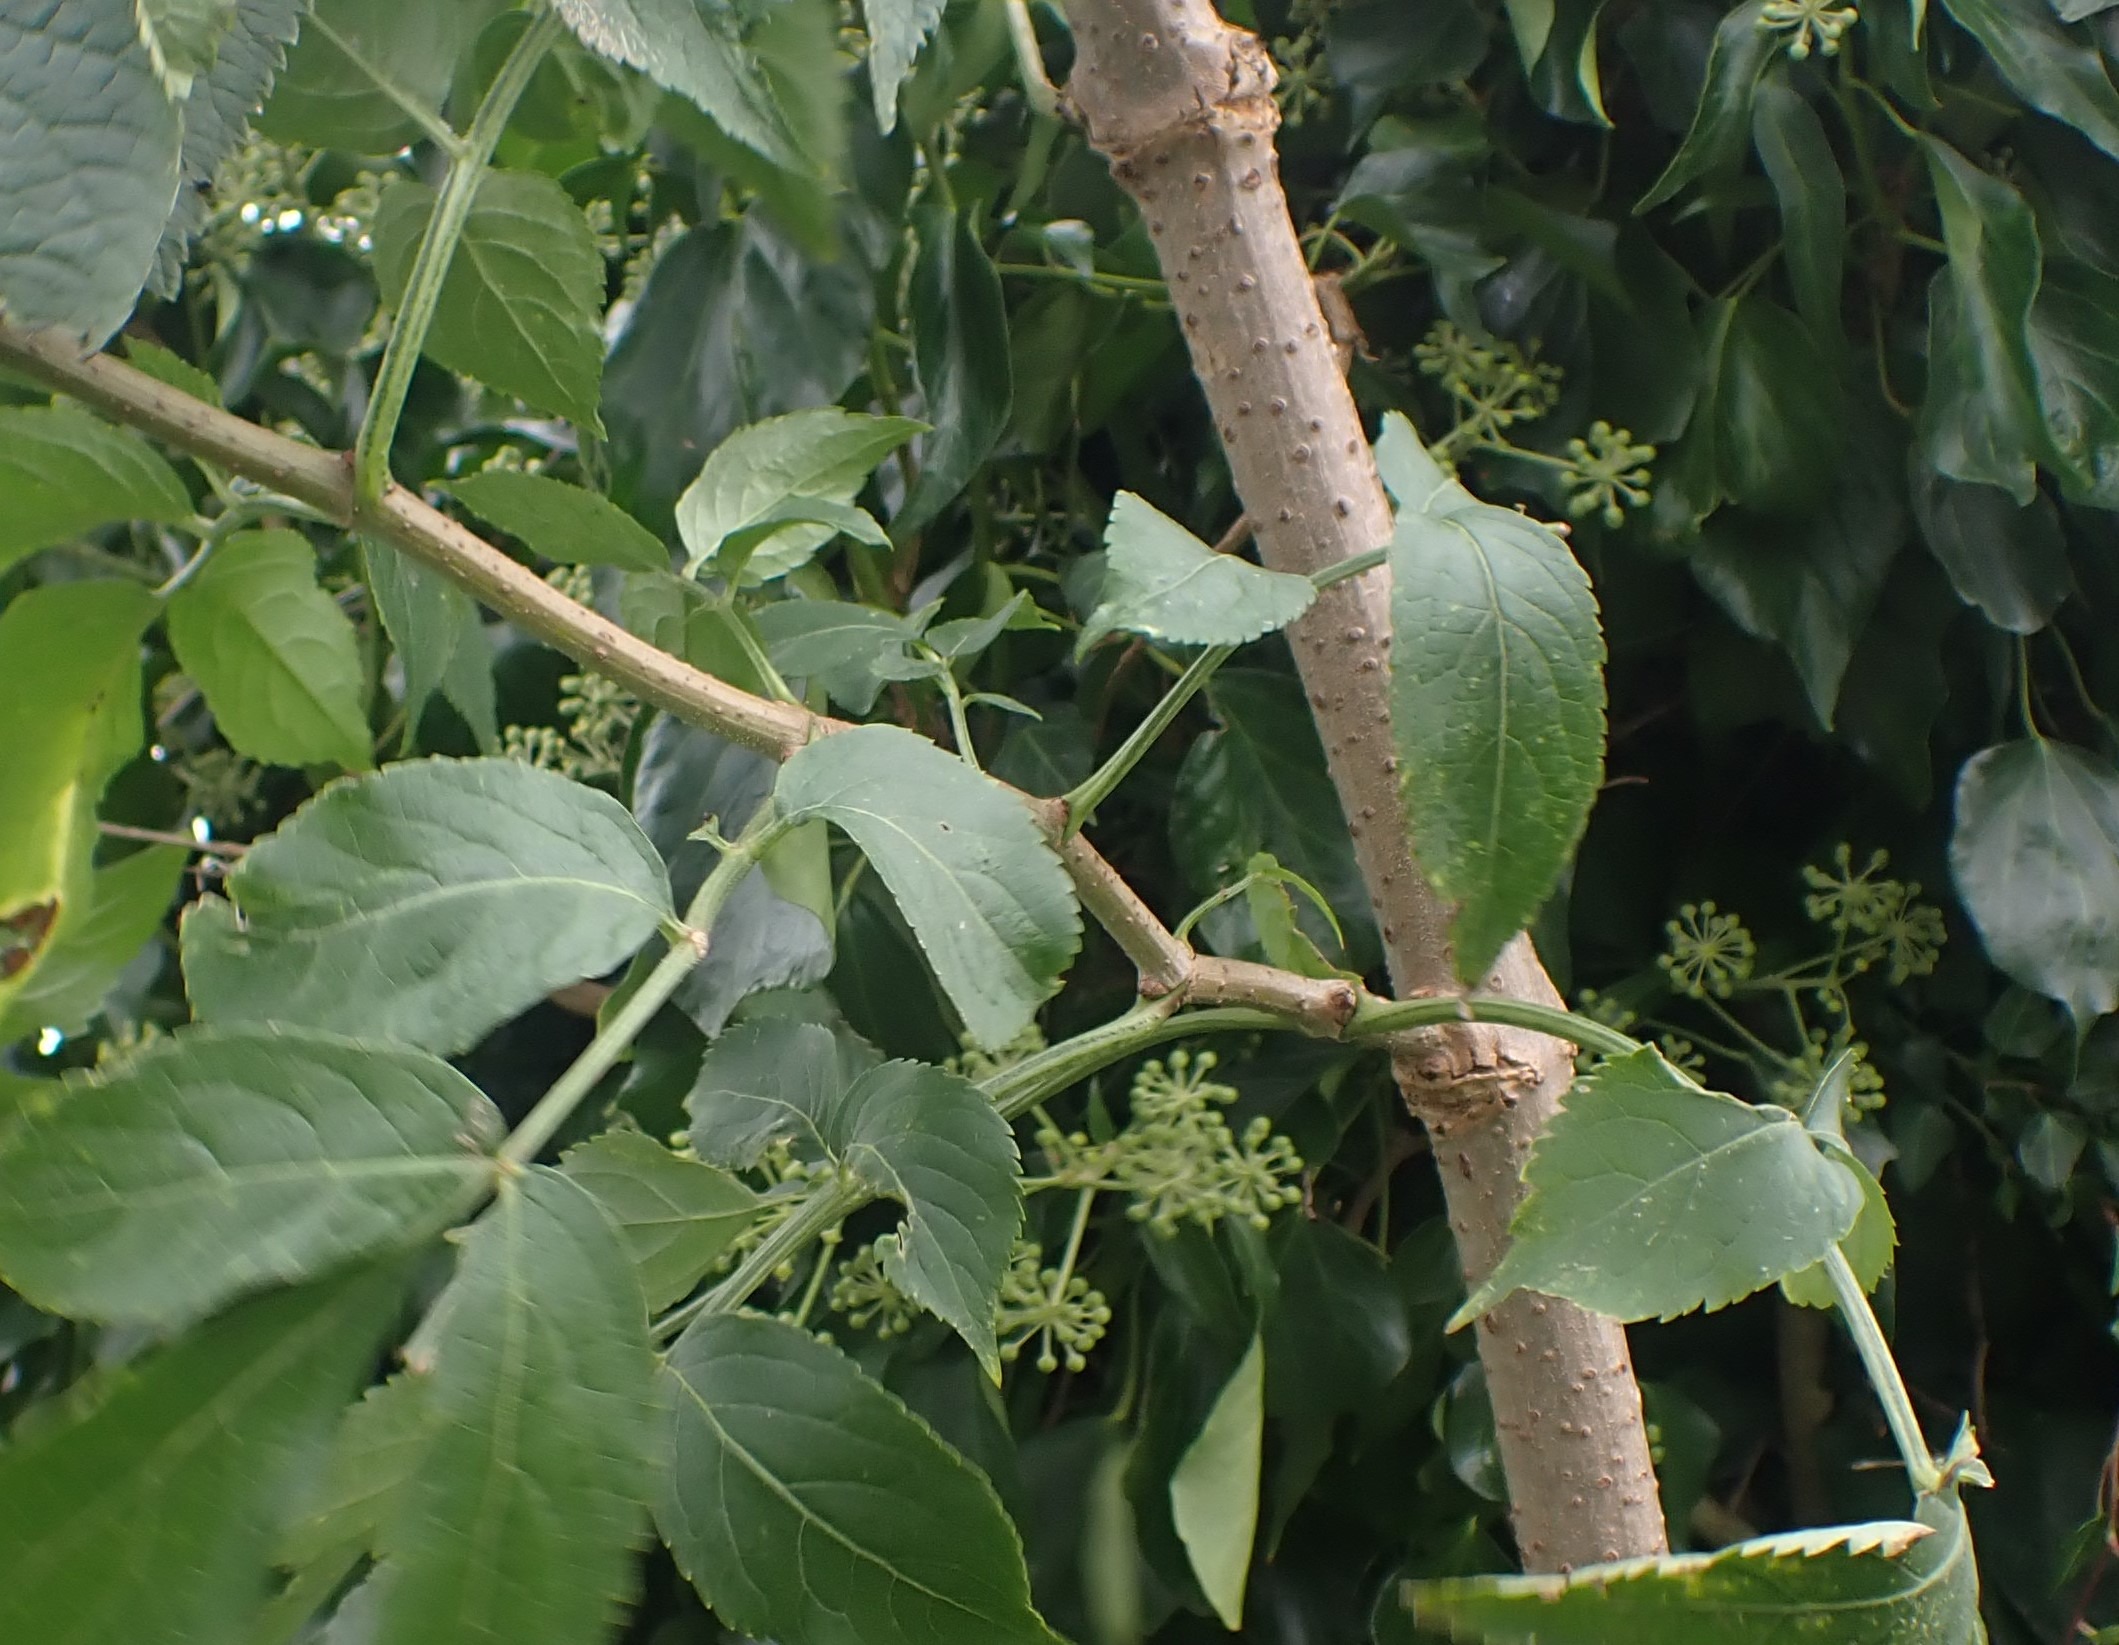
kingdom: Plantae
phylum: Tracheophyta
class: Magnoliopsida
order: Dipsacales
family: Viburnaceae
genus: Sambucus
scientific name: Sambucus nigra
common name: Almindelig hyld
